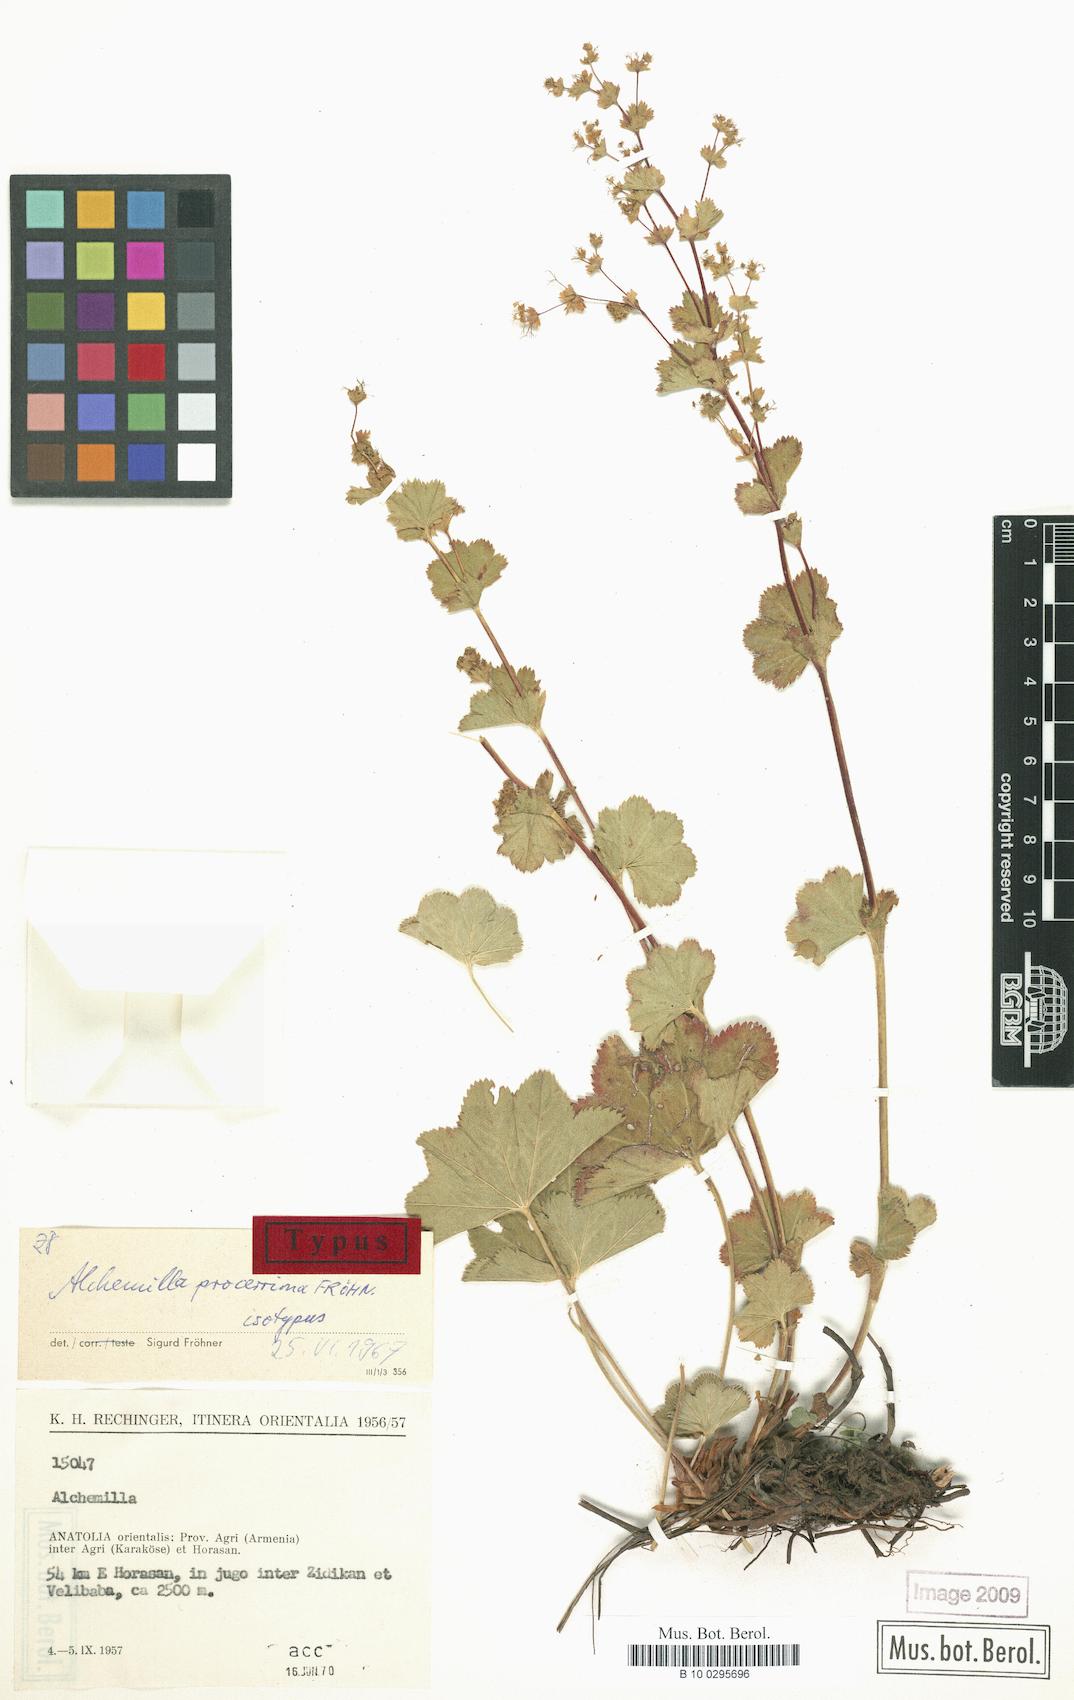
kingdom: Plantae
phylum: Tracheophyta
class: Magnoliopsida
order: Rosales
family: Rosaceae
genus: Alchemilla
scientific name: Alchemilla procerrima
